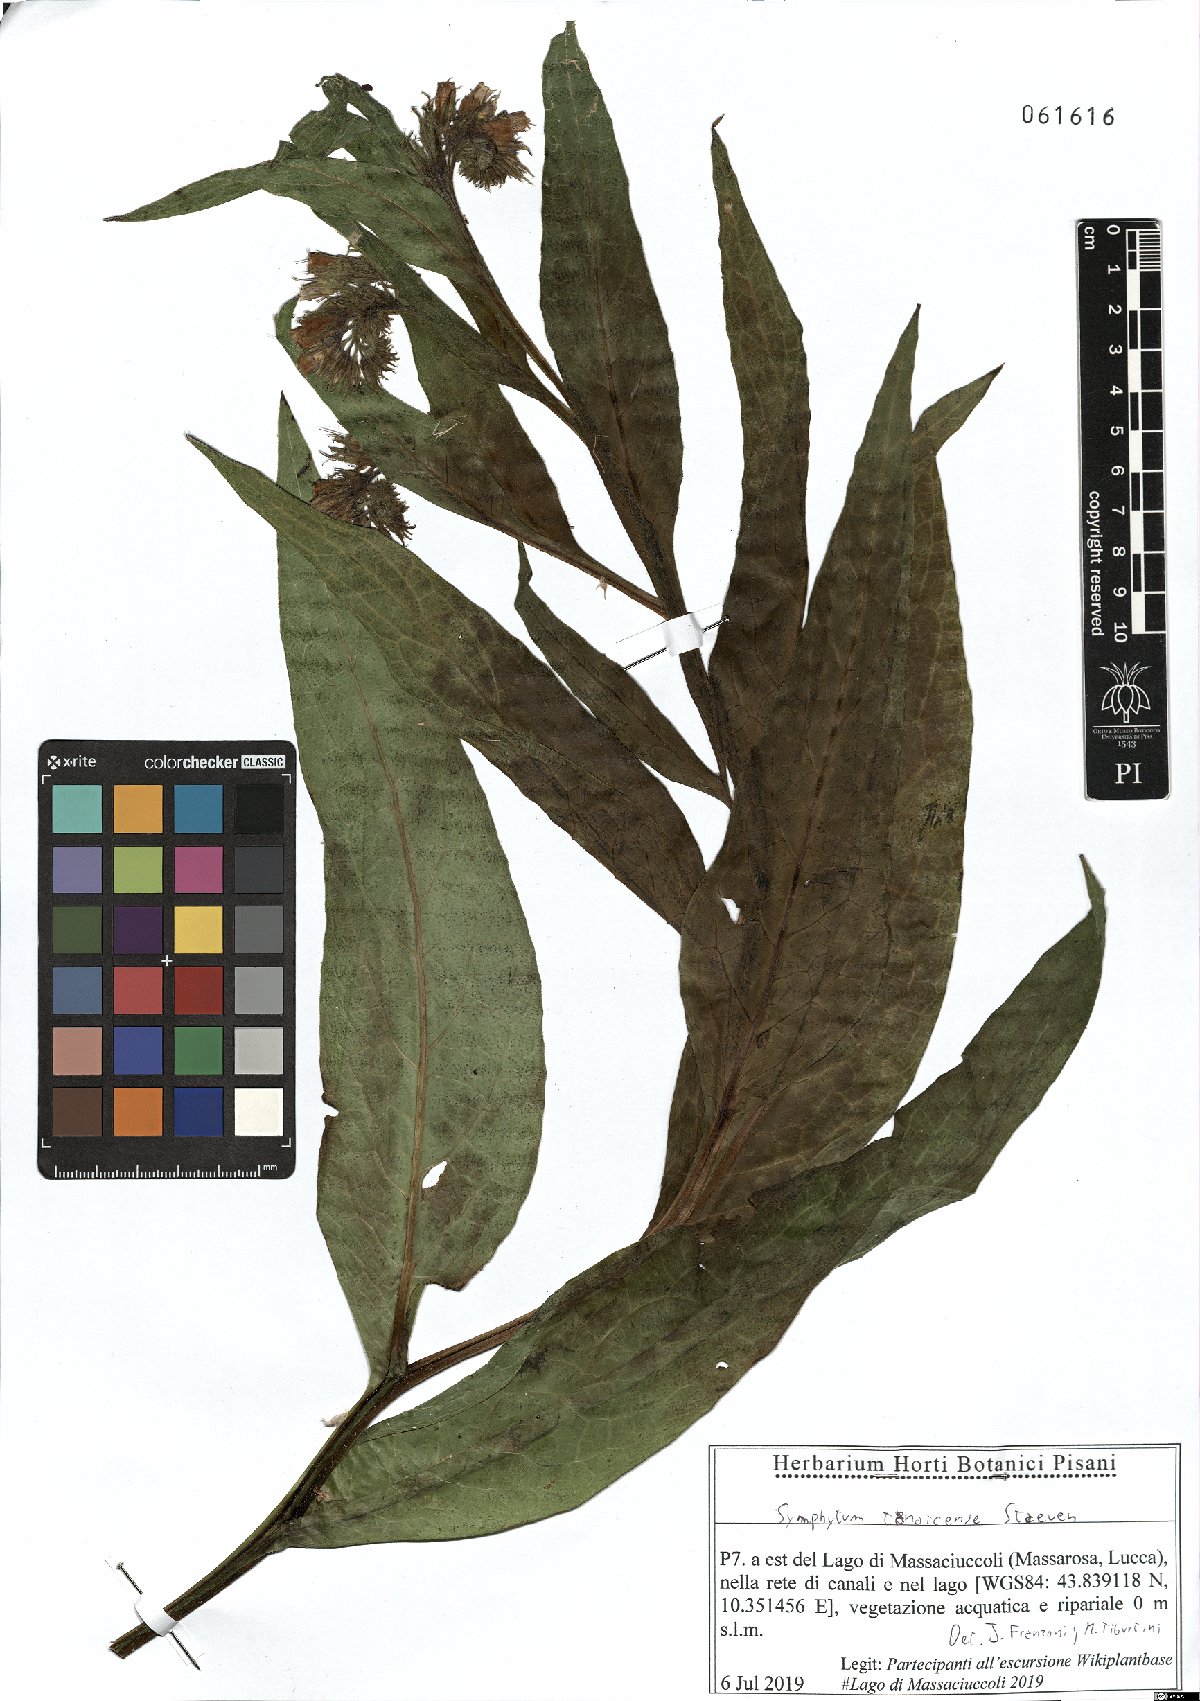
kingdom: Plantae
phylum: Tracheophyta
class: Magnoliopsida
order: Boraginales
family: Boraginaceae
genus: Symphytum
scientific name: Symphytum tanaicense
